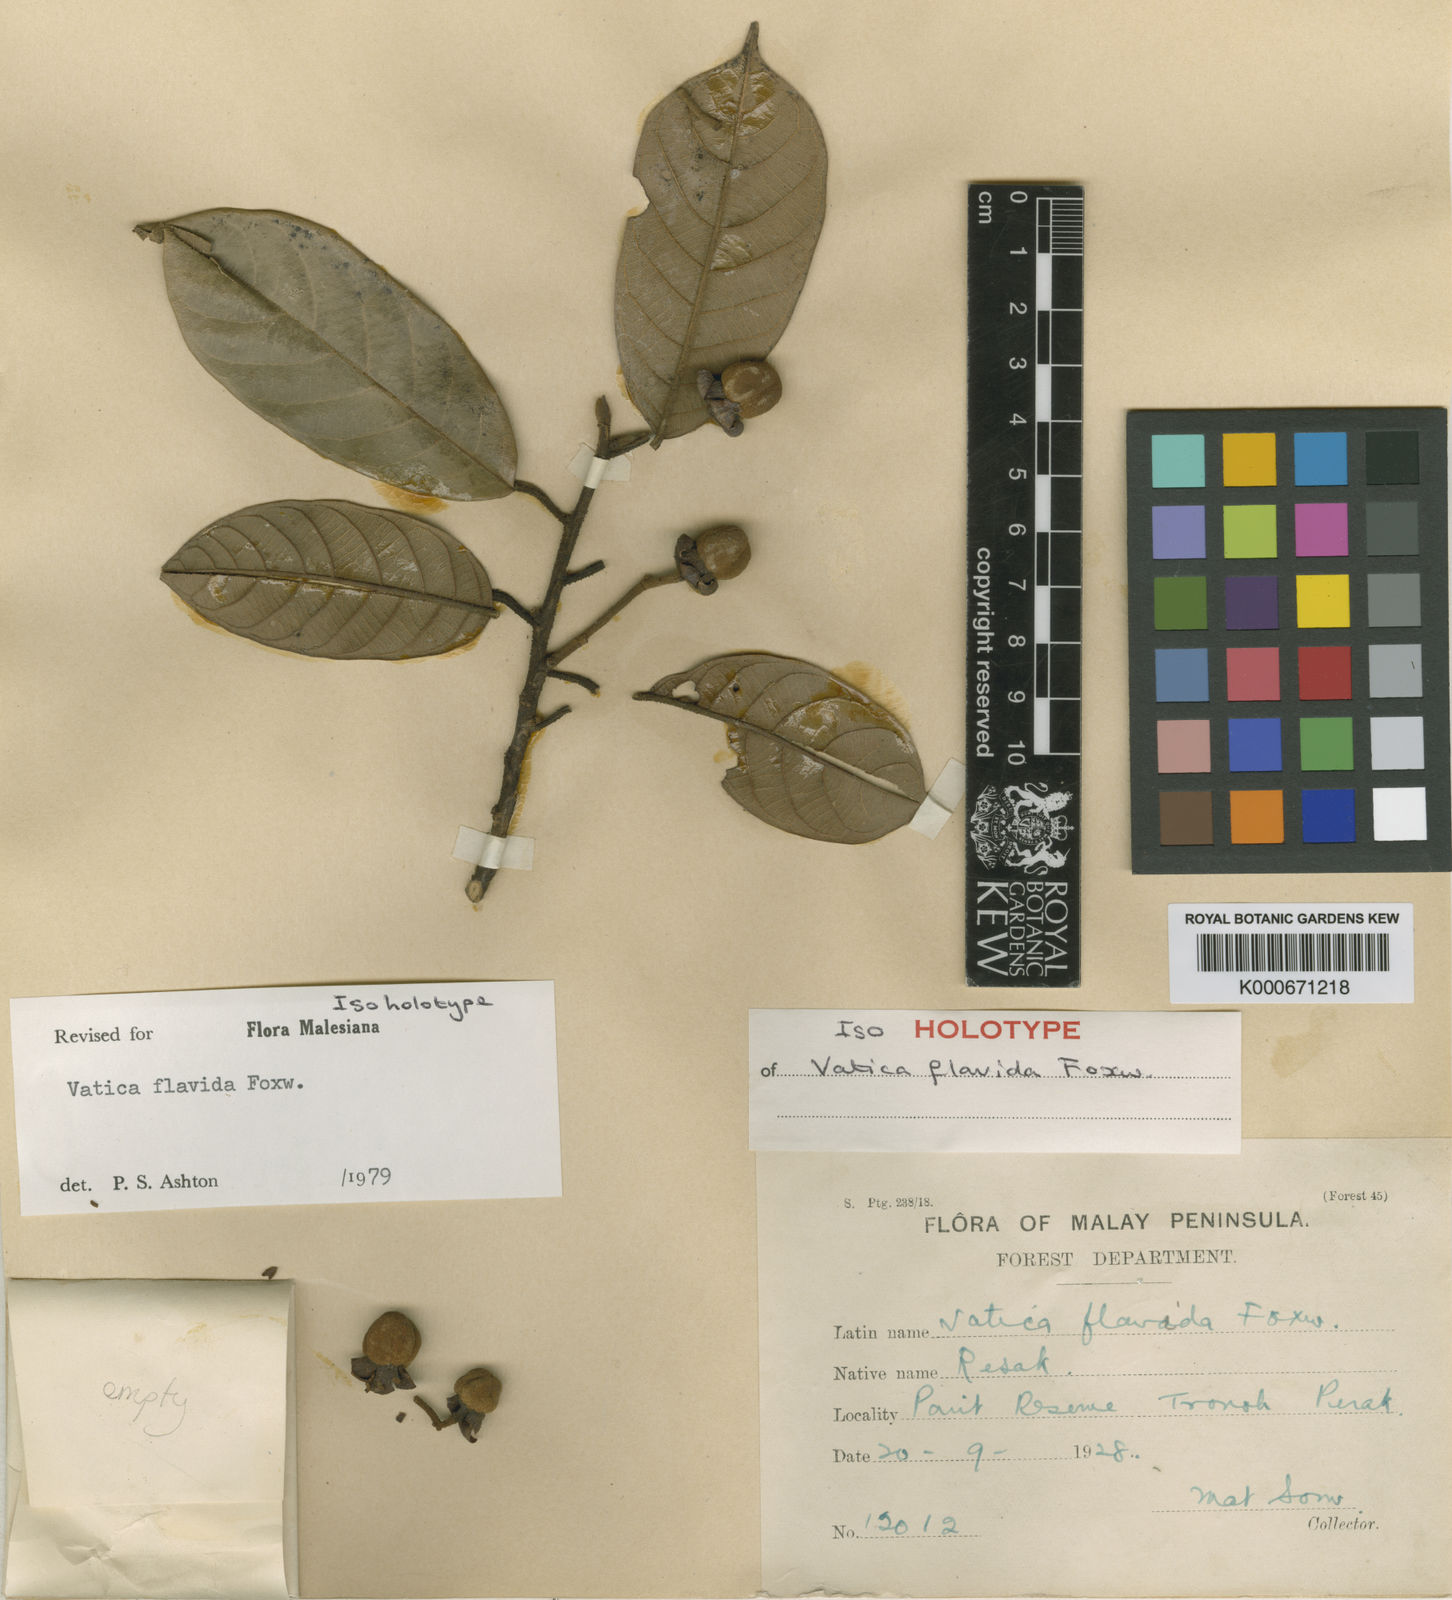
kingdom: Plantae
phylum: Tracheophyta
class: Magnoliopsida
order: Malvales
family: Dipterocarpaceae
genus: Vatica
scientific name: Vatica flavida
